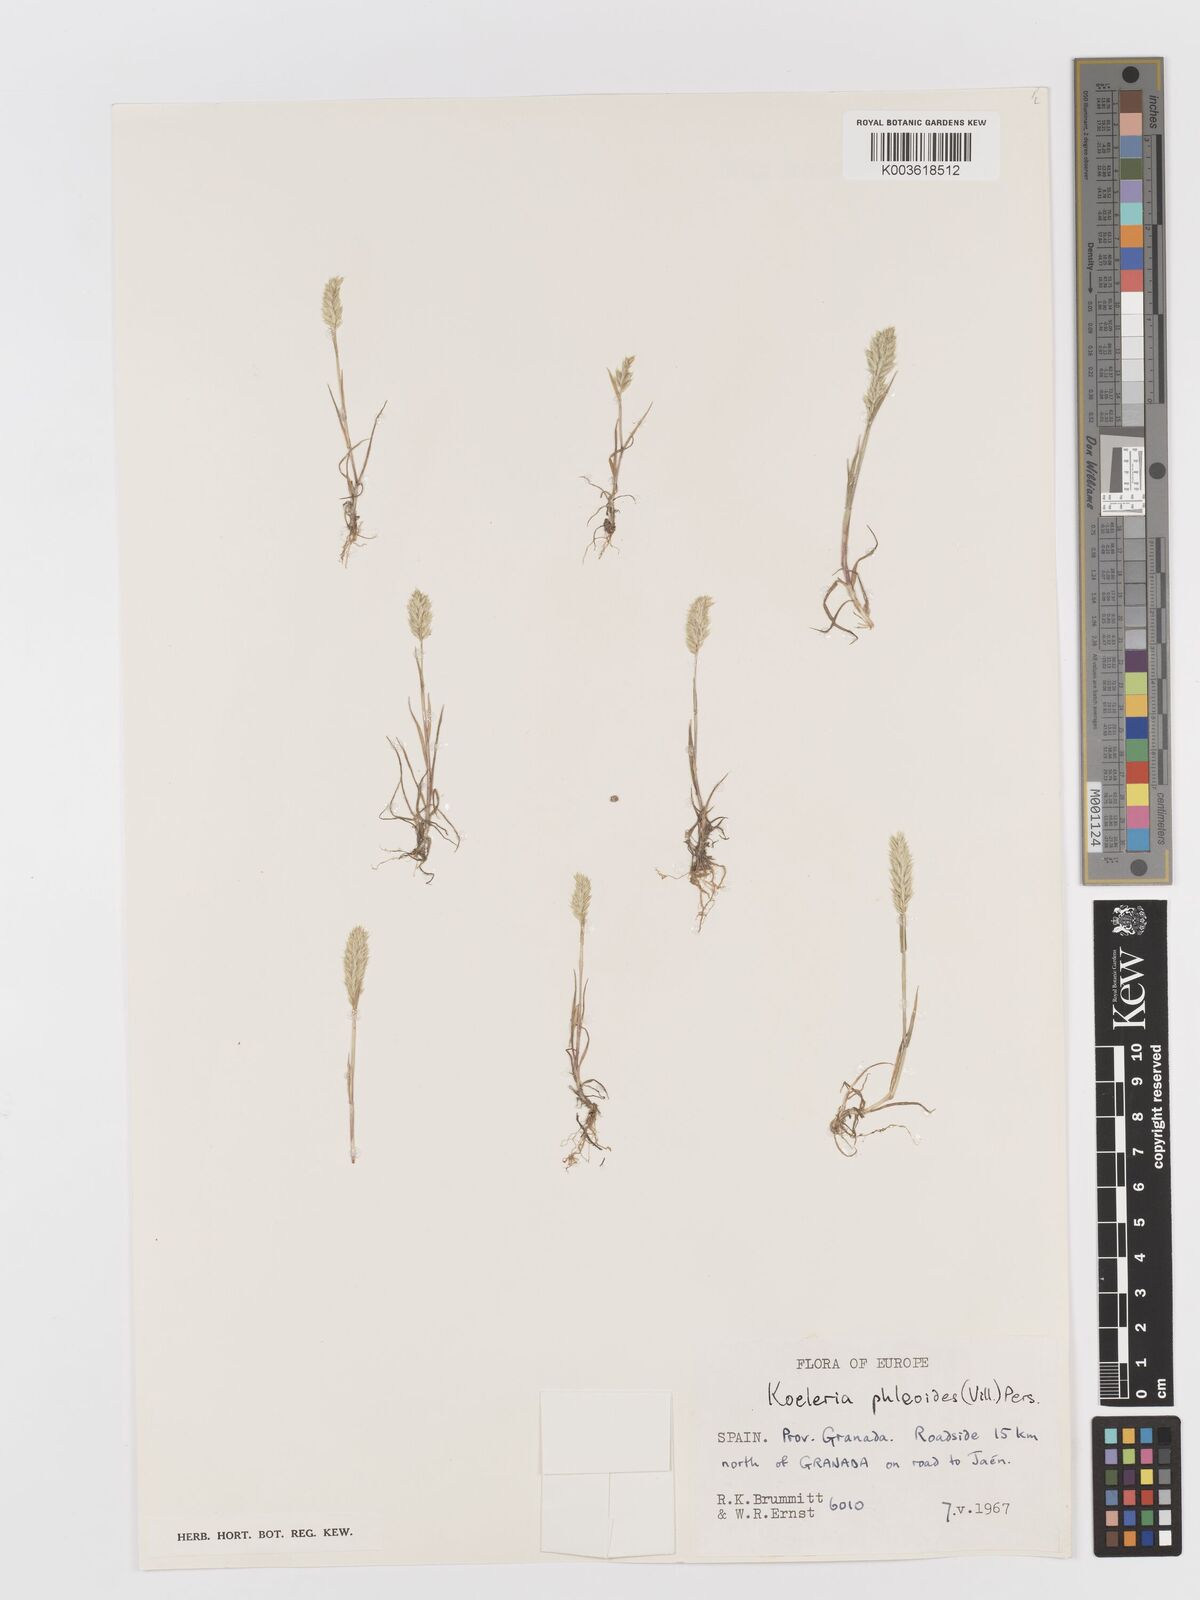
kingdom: Plantae
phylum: Tracheophyta
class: Liliopsida
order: Poales
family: Poaceae
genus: Rostraria
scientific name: Rostraria cristata
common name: Mediterranean hair-grass
